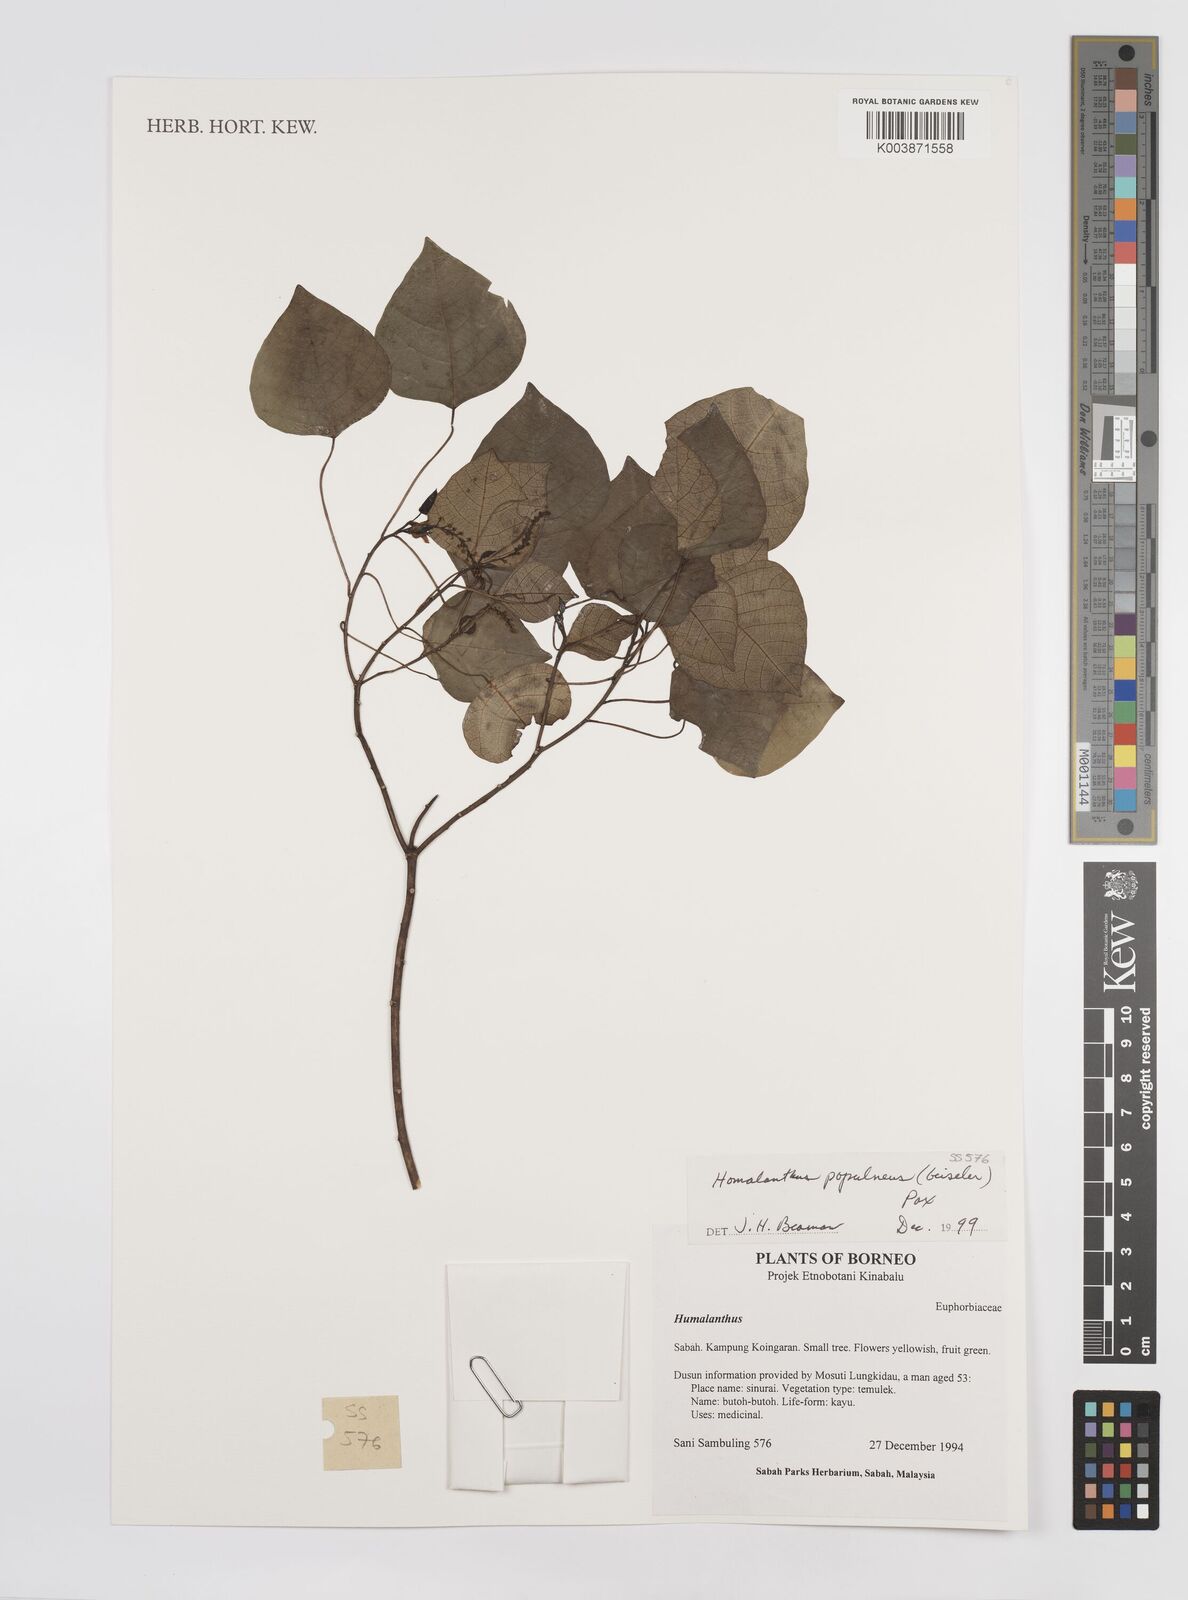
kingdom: Plantae
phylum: Tracheophyta
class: Magnoliopsida
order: Malpighiales
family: Euphorbiaceae
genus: Homalanthus
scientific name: Homalanthus populneus
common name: Spurge
